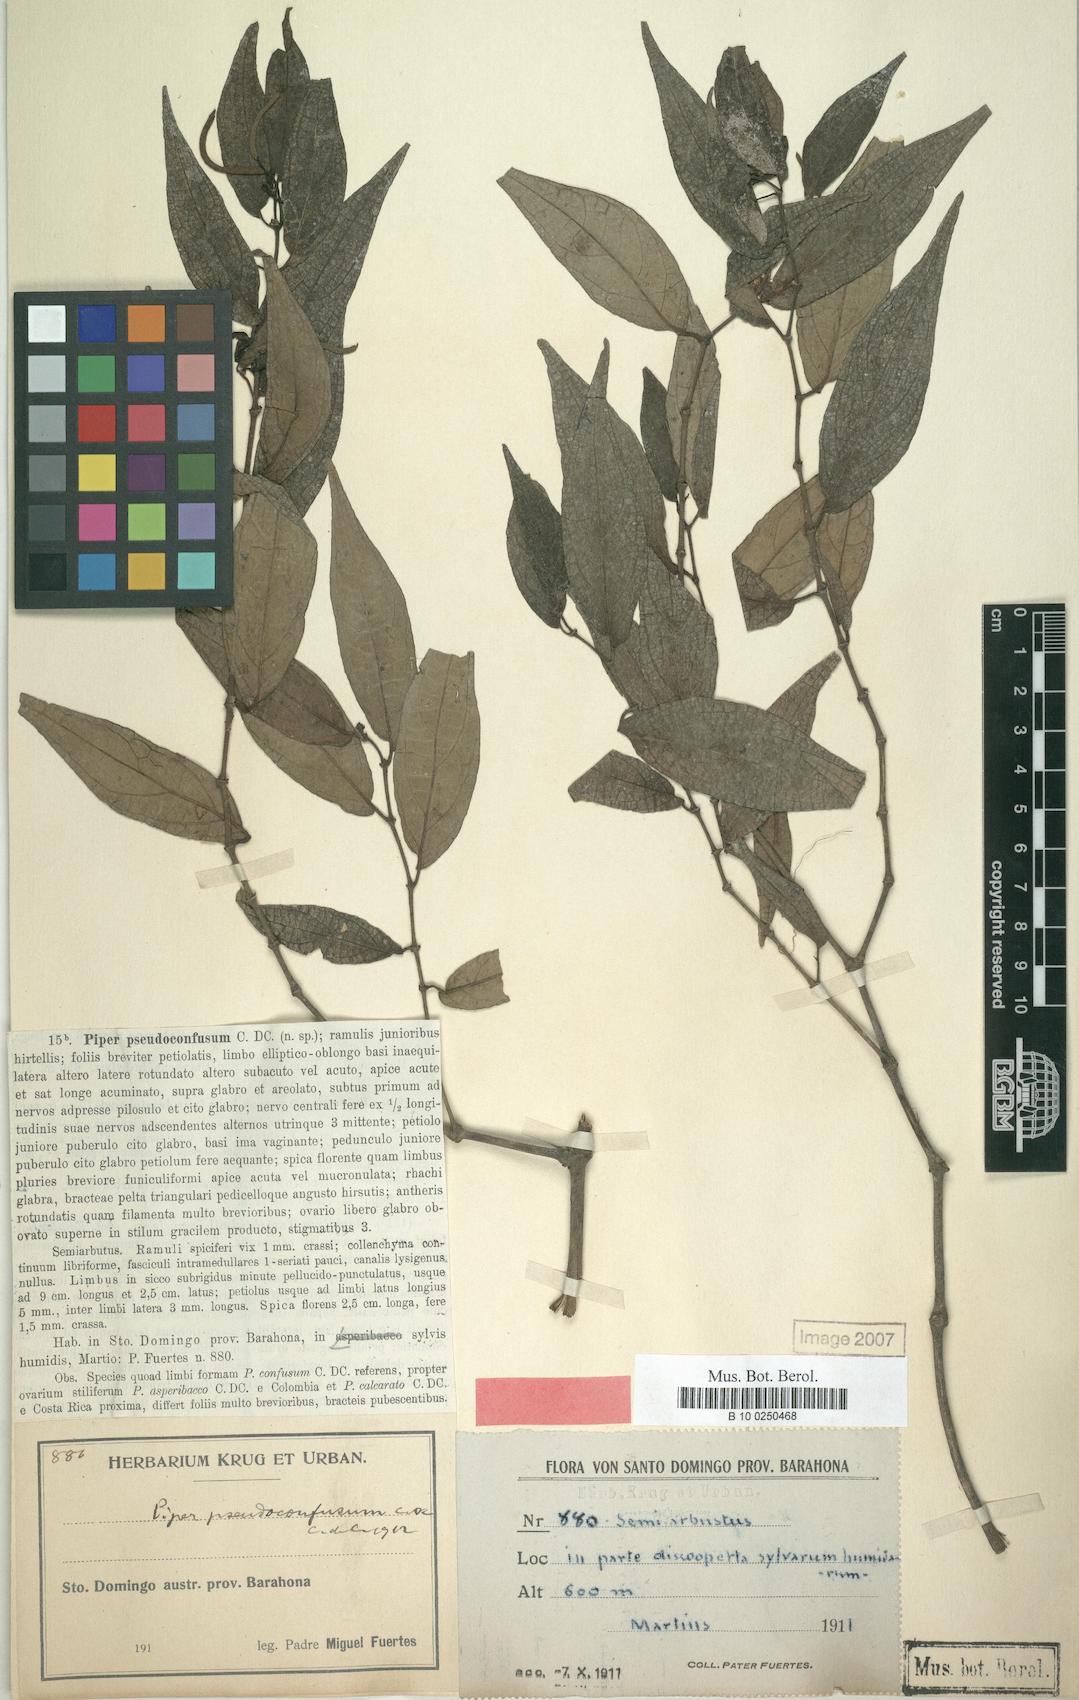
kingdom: Plantae
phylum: Tracheophyta
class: Magnoliopsida
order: Piperales
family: Piperaceae
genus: Piper
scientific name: Piper confusum
